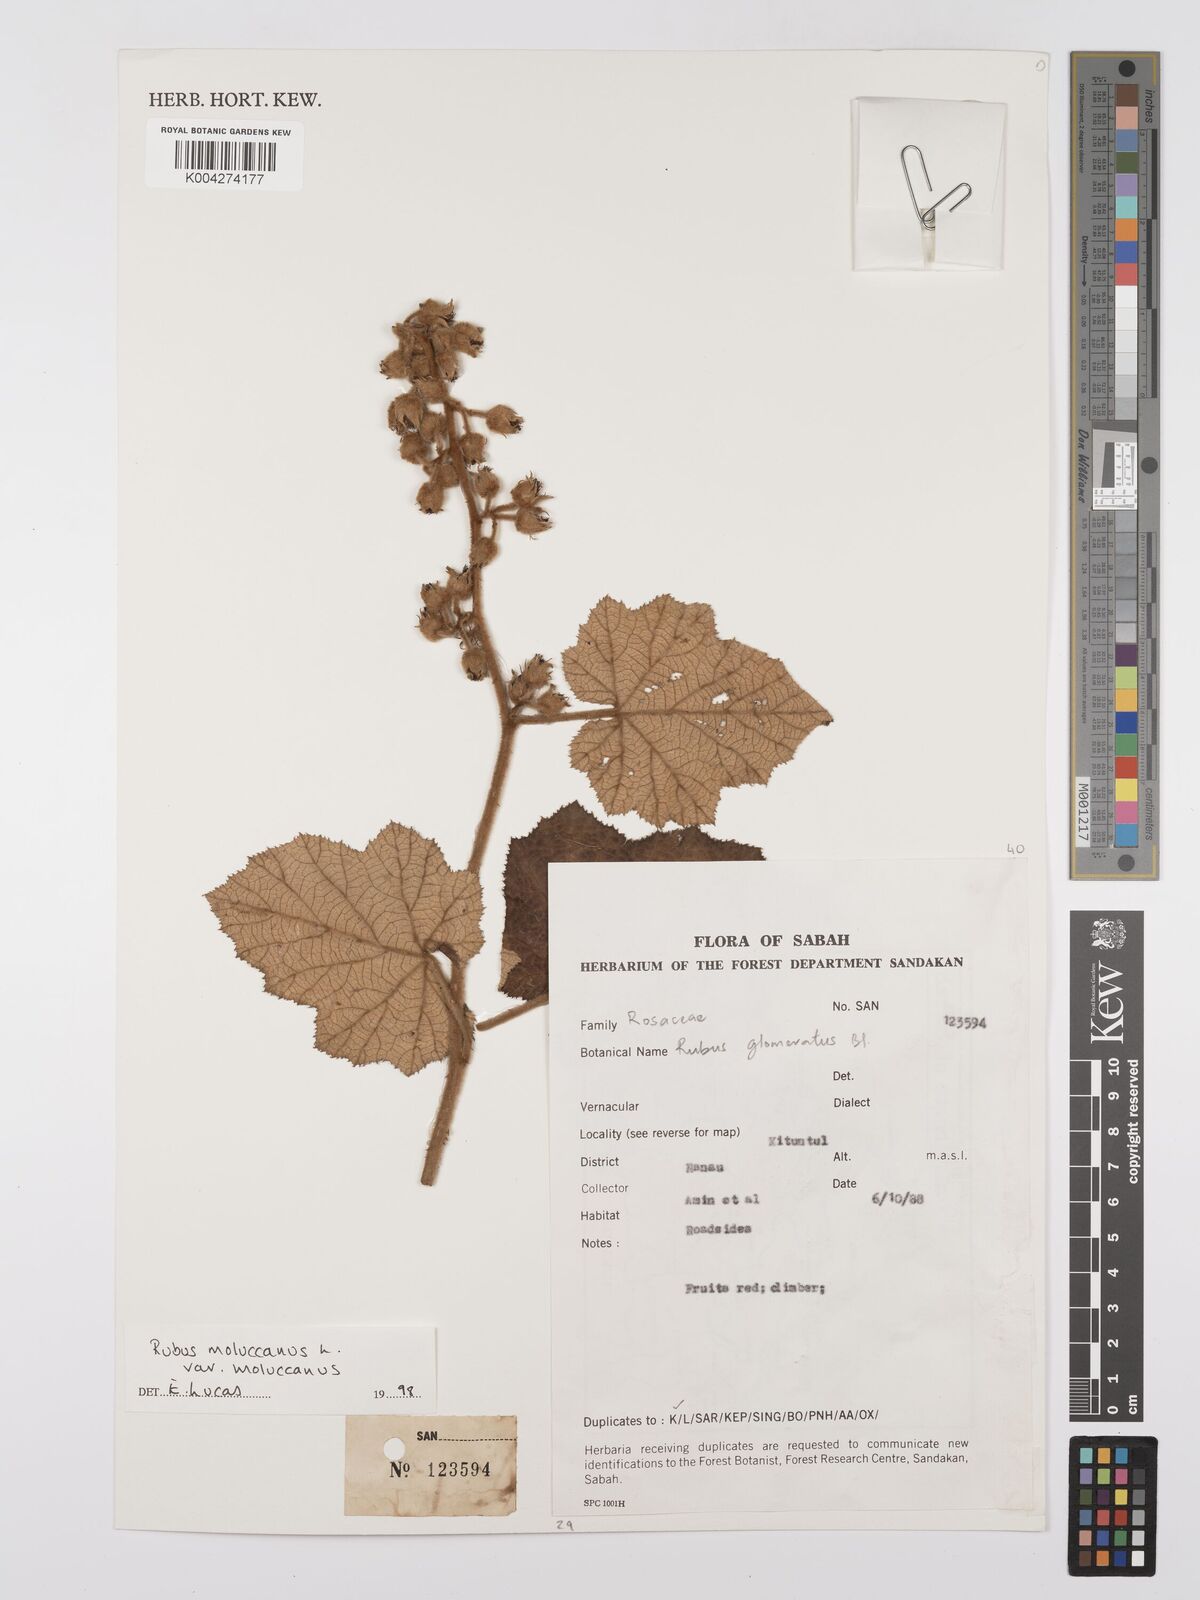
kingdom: Plantae
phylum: Tracheophyta
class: Magnoliopsida
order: Rosales
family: Rosaceae
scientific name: Rosaceae
